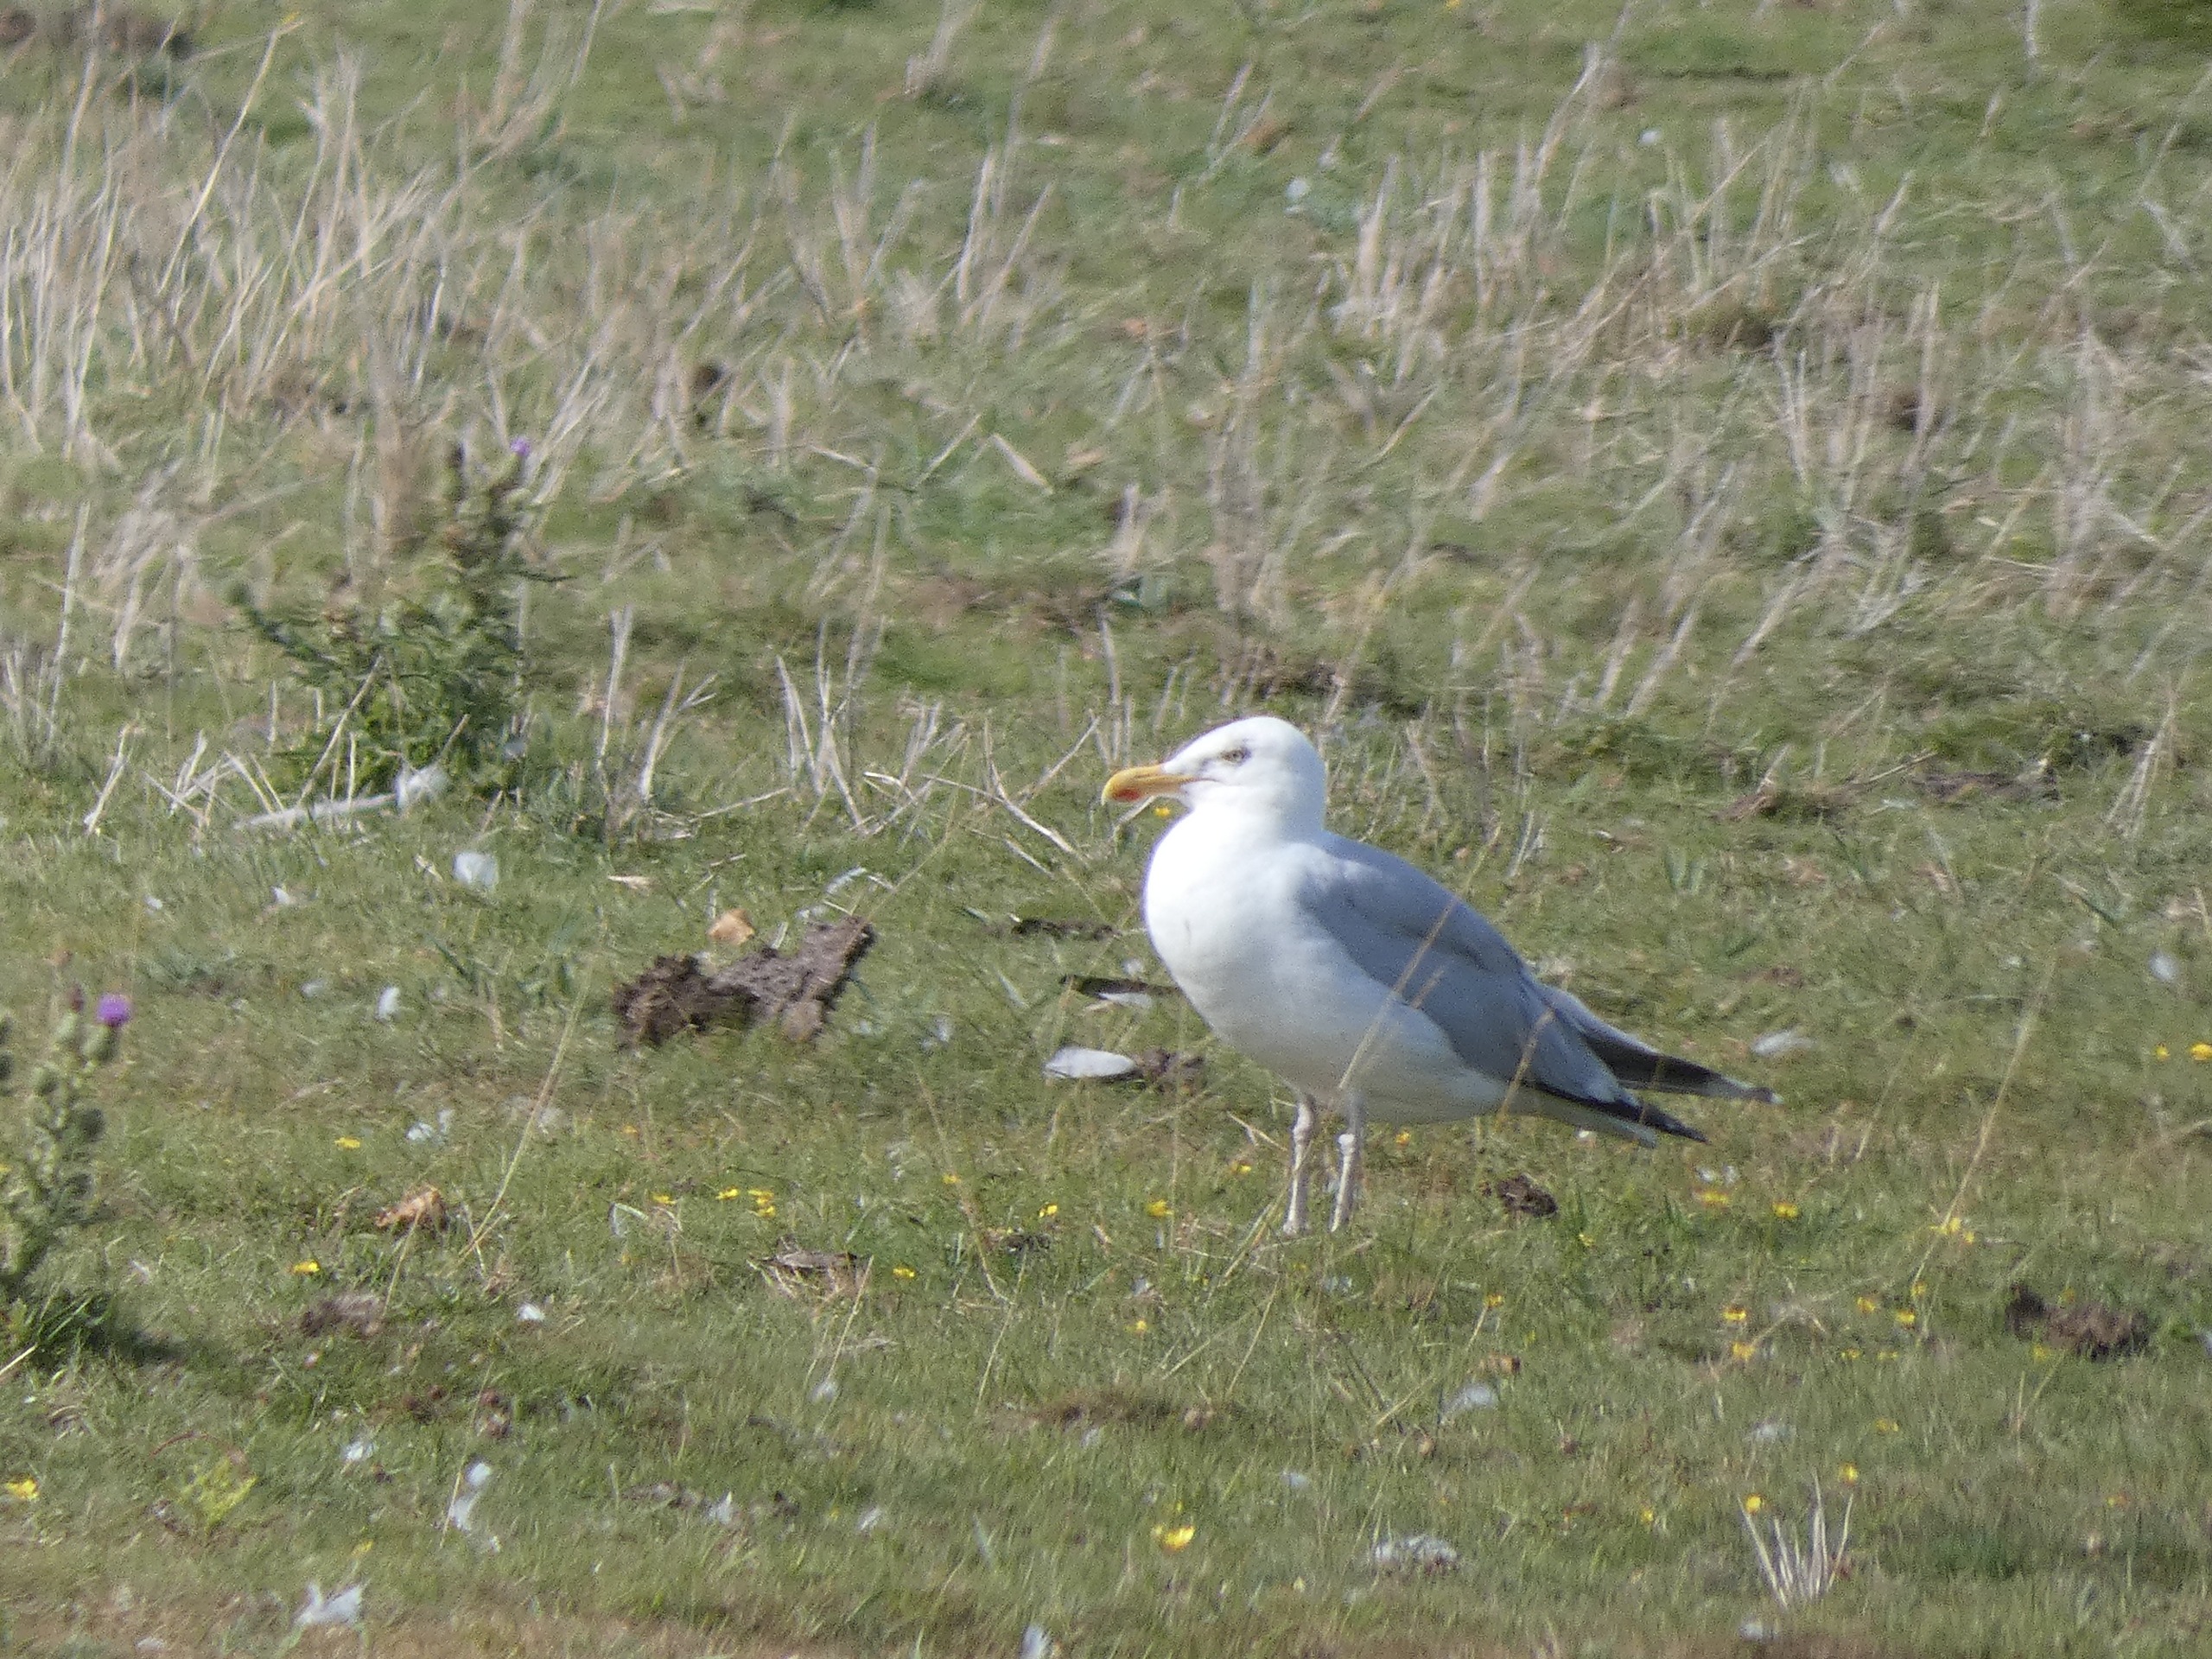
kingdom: Animalia
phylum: Chordata
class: Aves
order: Charadriiformes
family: Laridae
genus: Larus
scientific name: Larus argentatus
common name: Sølvmåge
